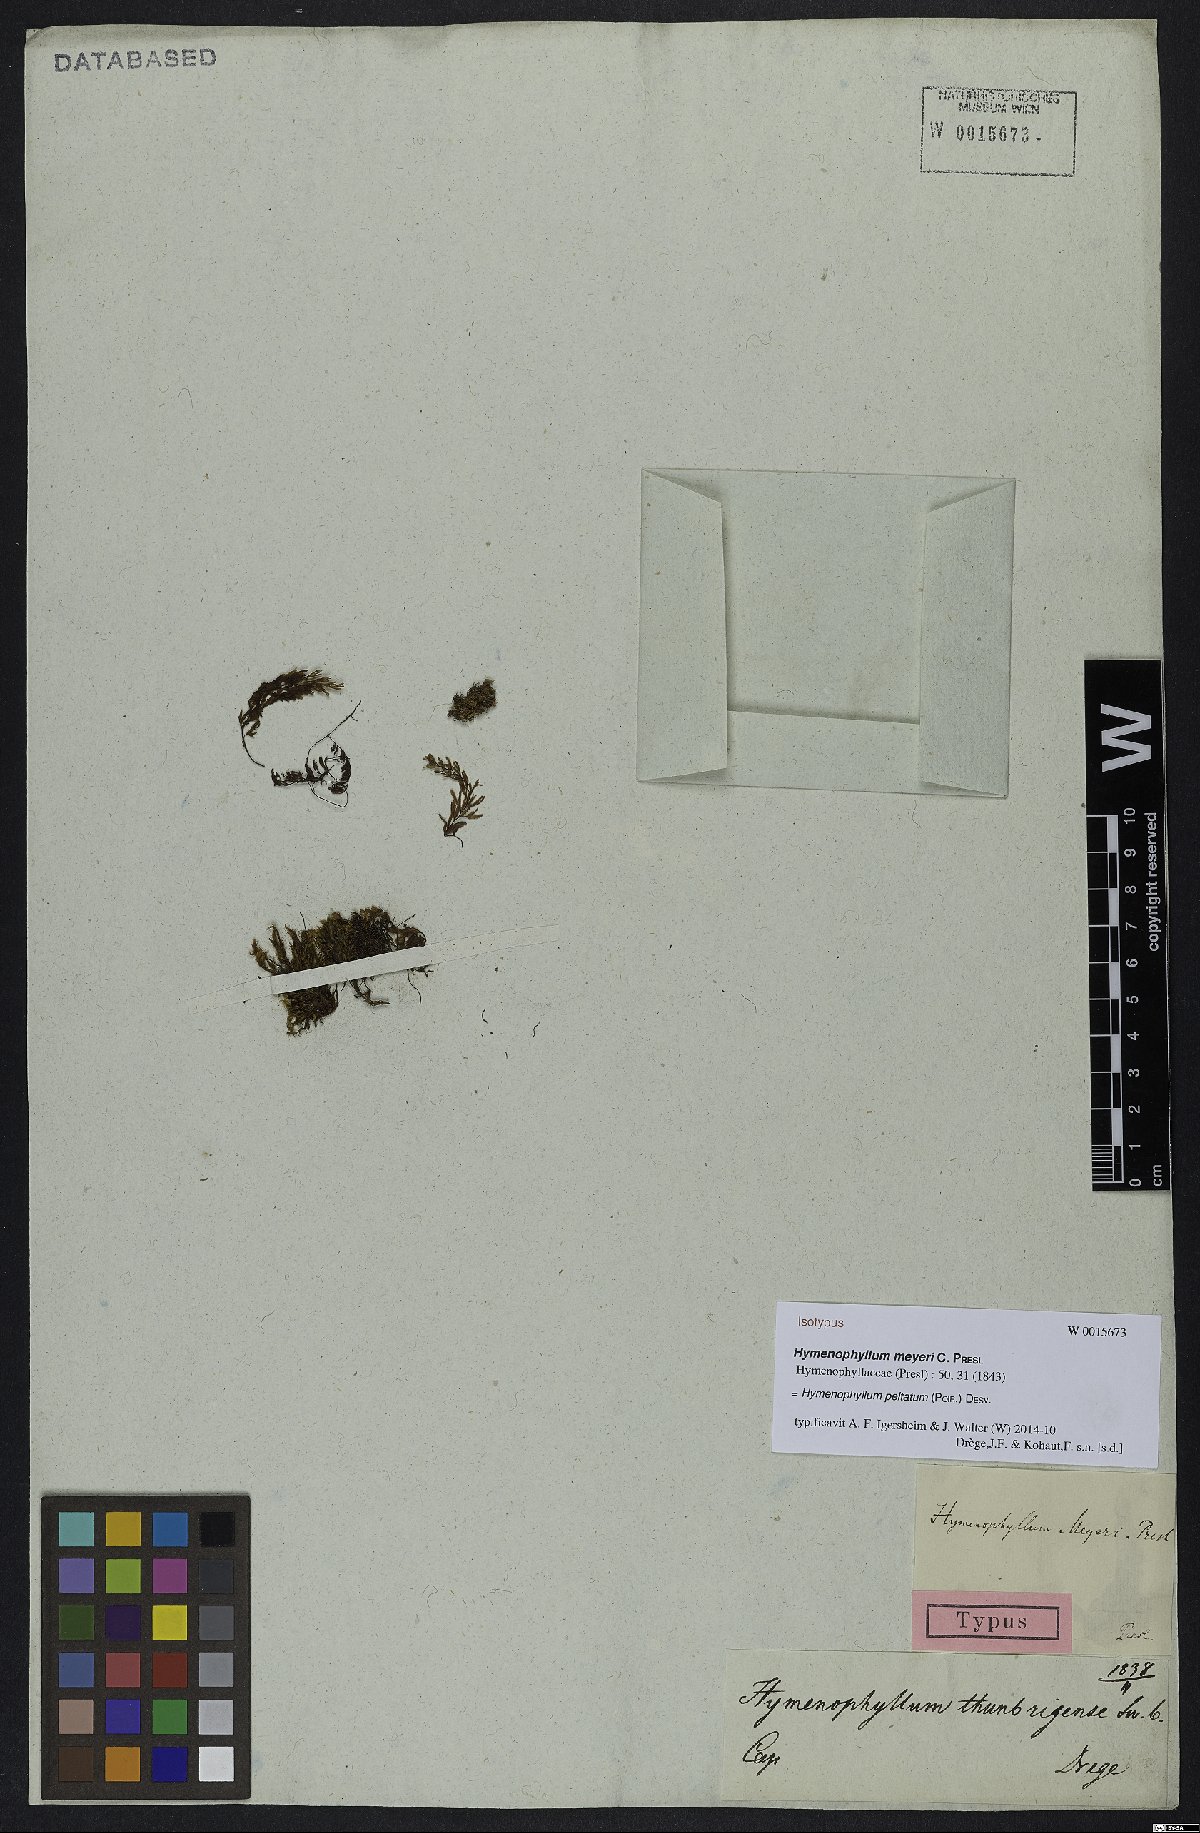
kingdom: Plantae
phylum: Tracheophyta
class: Polypodiopsida
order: Hymenophyllales
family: Hymenophyllaceae
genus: Hymenophyllum
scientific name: Hymenophyllum peltatum
